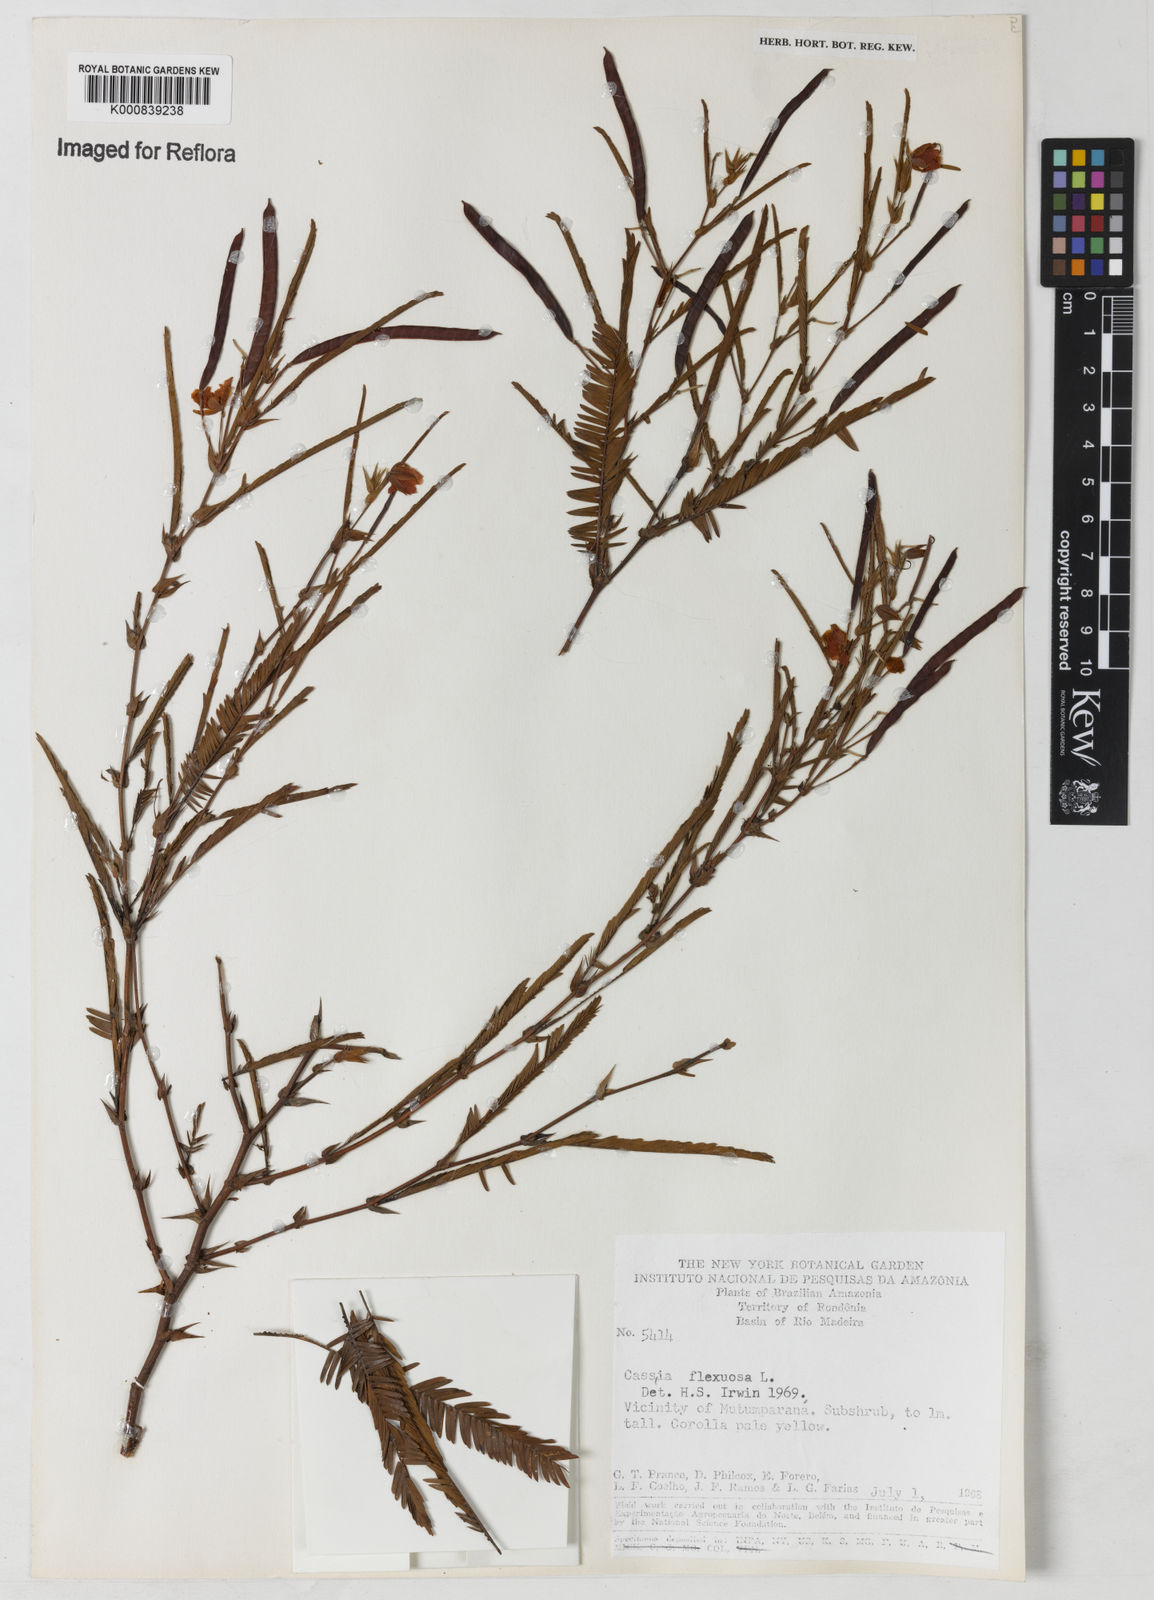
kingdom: Plantae
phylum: Tracheophyta
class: Magnoliopsida
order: Fabales
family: Fabaceae
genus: Chamaecrista
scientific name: Chamaecrista flexuosa
